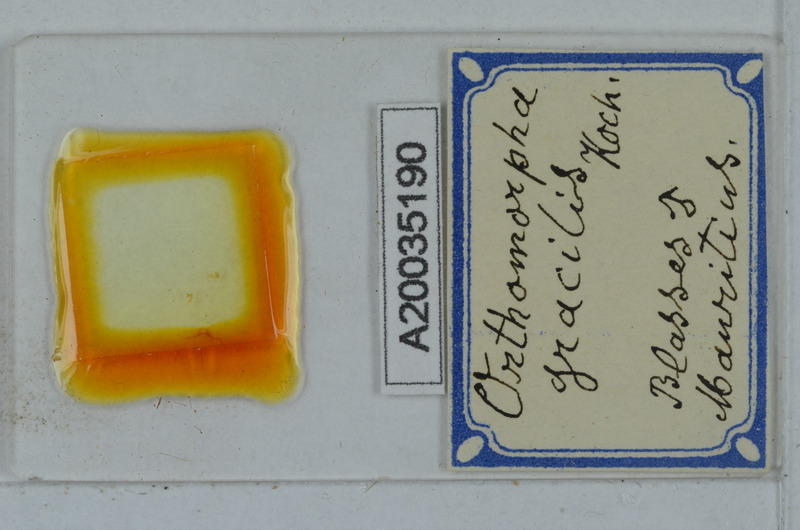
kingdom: Animalia
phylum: Arthropoda
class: Diplopoda
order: Polydesmida
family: Paradoxosomatidae
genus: Oxidus
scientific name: Oxidus gracilis
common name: Greenhouse millipede
